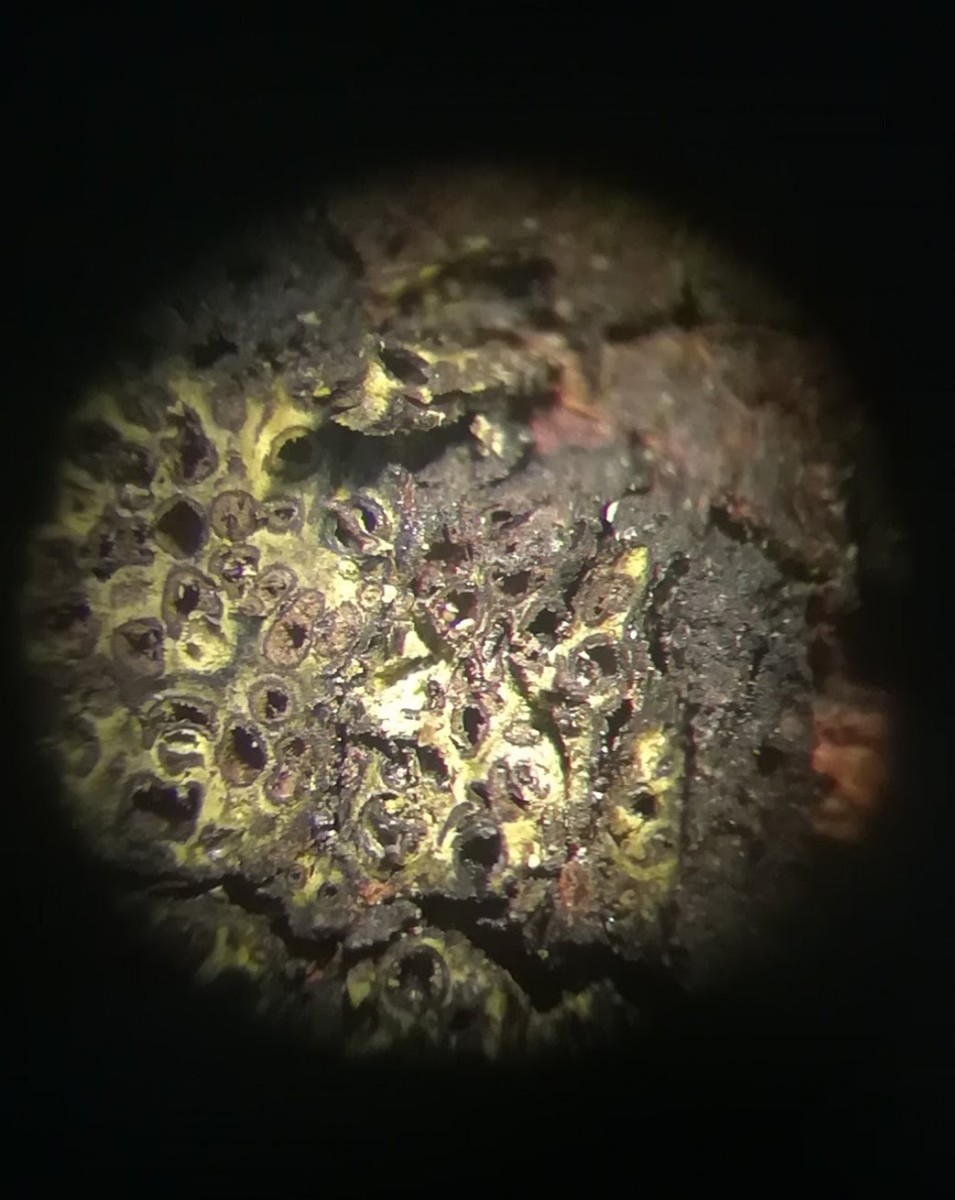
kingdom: Fungi
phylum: Ascomycota
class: Sordariomycetes
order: Xylariales
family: Diatrypaceae
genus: Eutypa
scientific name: Eutypa flavovirens
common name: grønkødet kulskorpe
